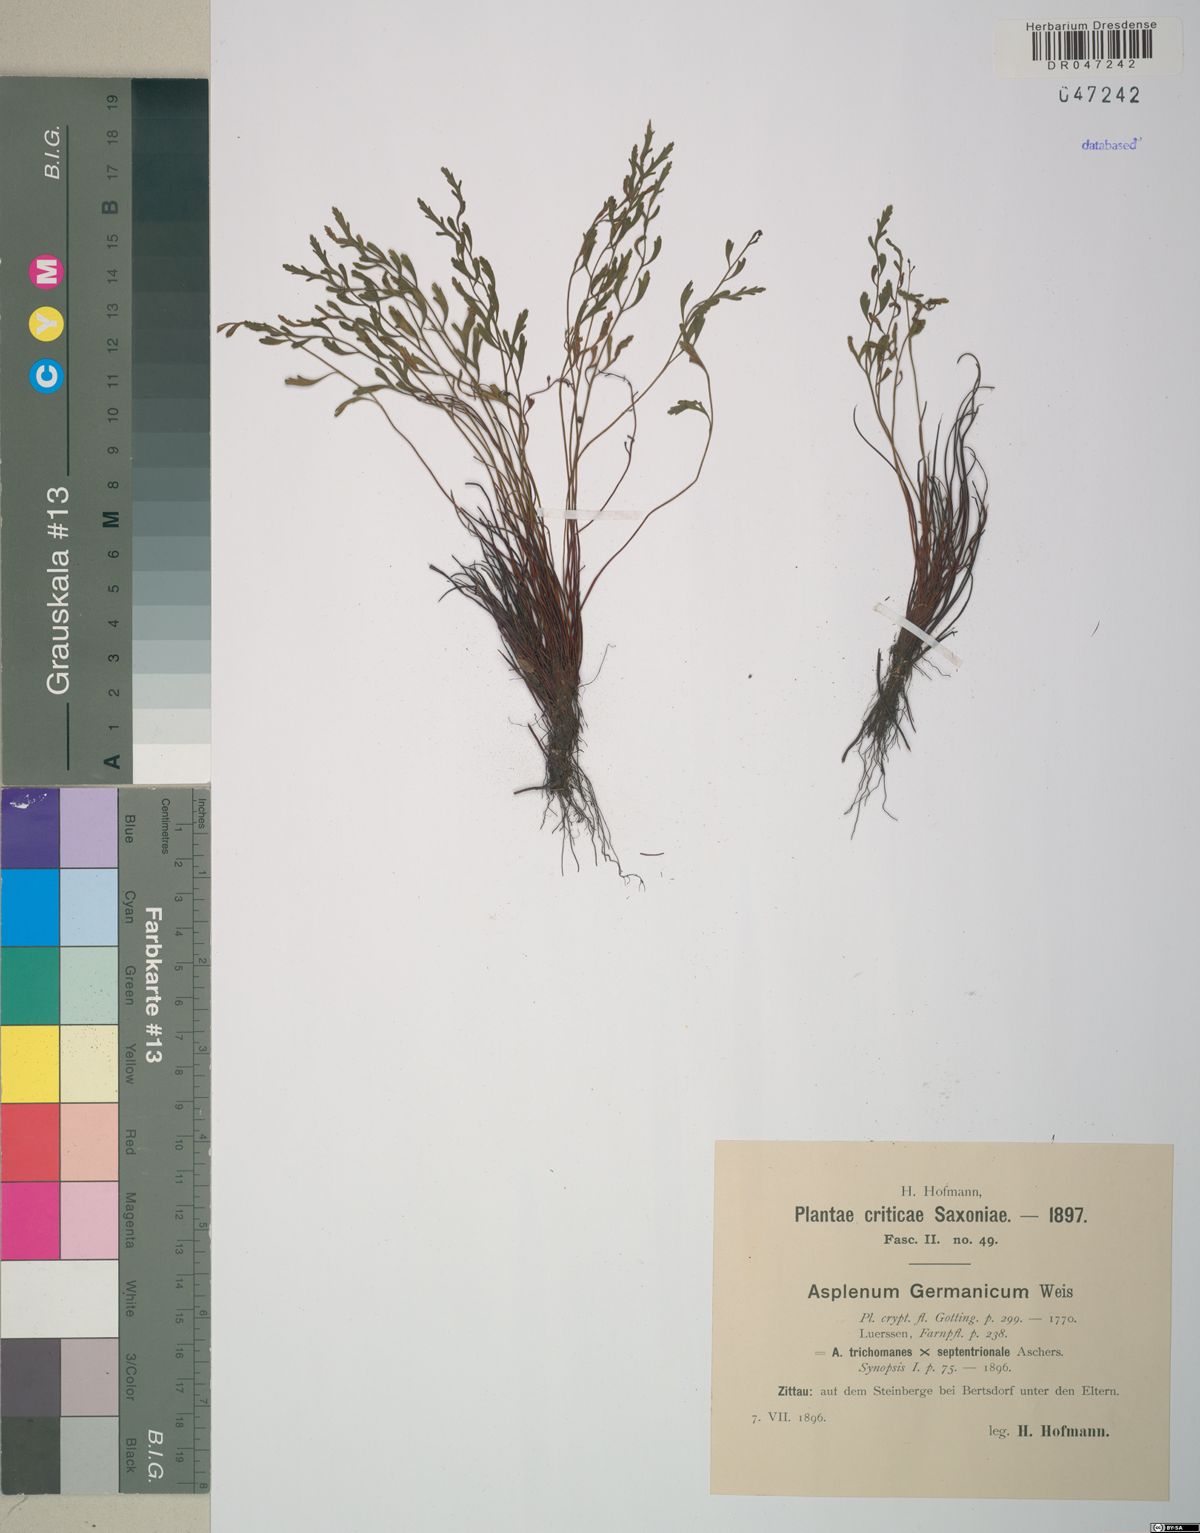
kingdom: Plantae
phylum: Tracheophyta
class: Polypodiopsida
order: Polypodiales
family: Aspleniaceae
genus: Asplenium
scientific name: Asplenium
